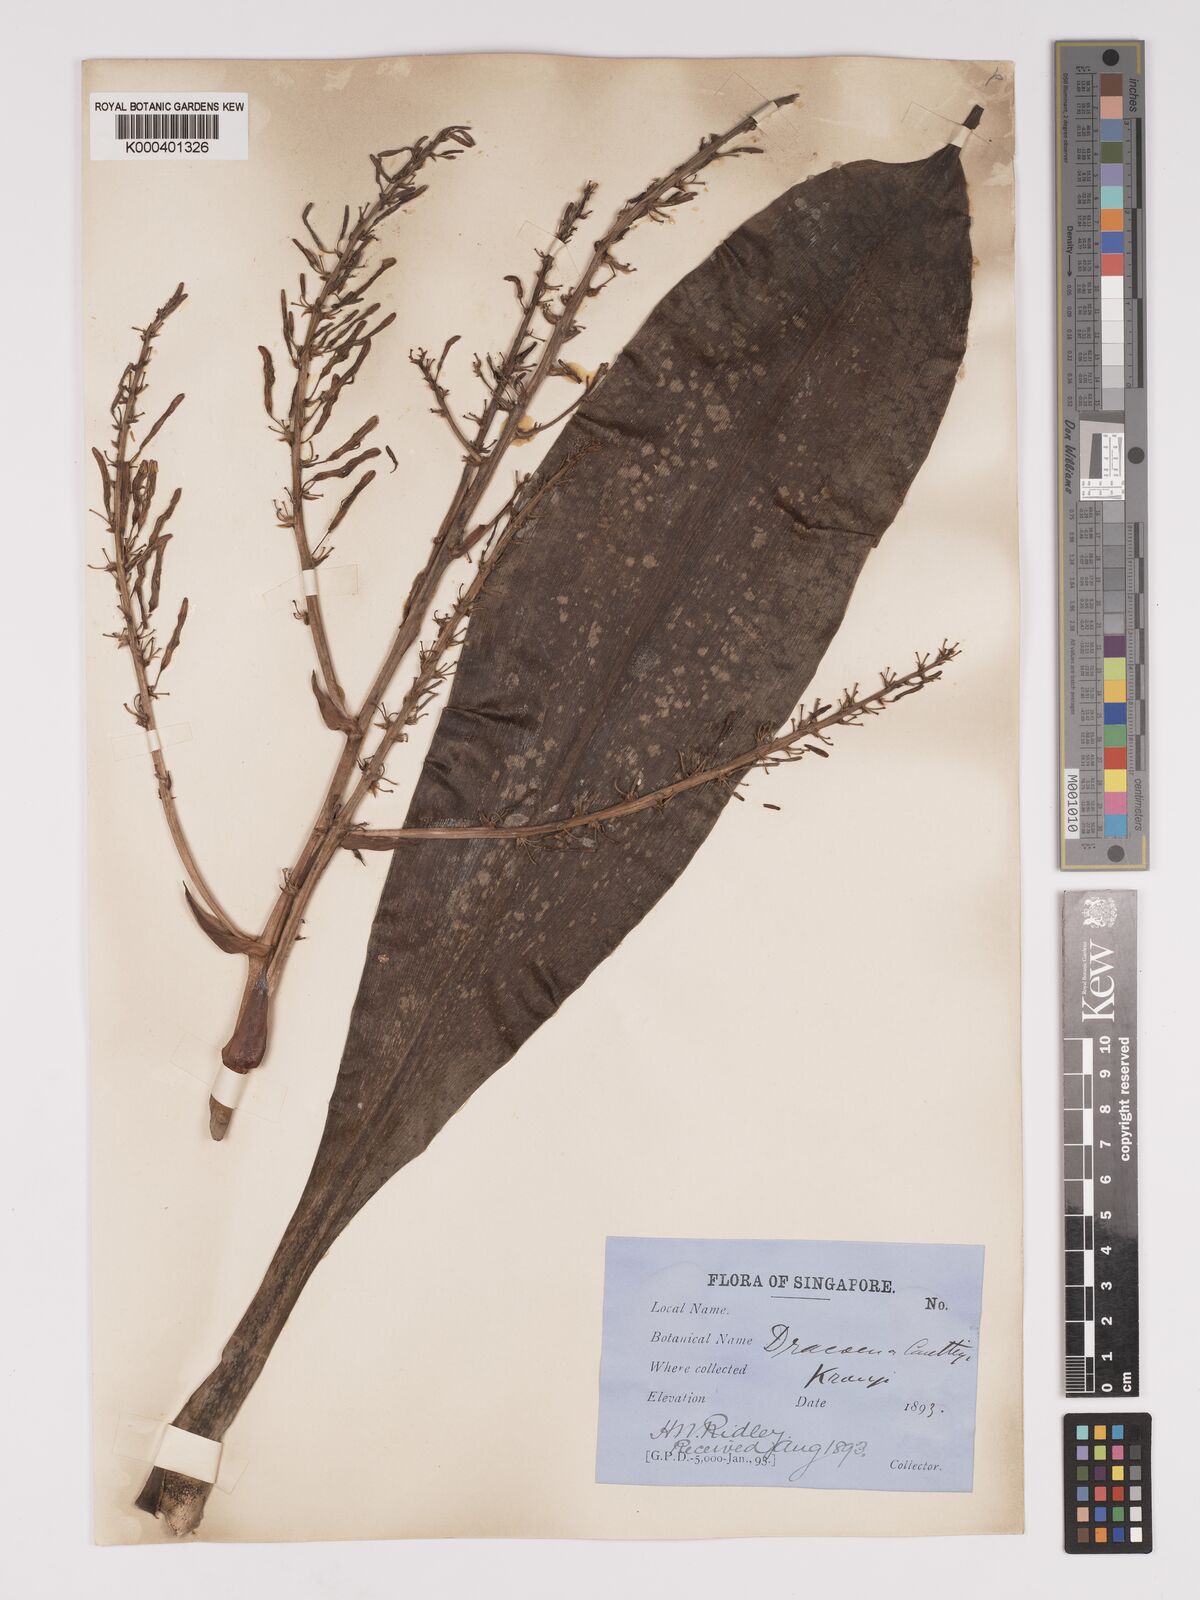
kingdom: Plantae
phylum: Tracheophyta
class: Liliopsida
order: Asparagales
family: Asparagaceae
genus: Dracaena
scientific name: Dracaena
